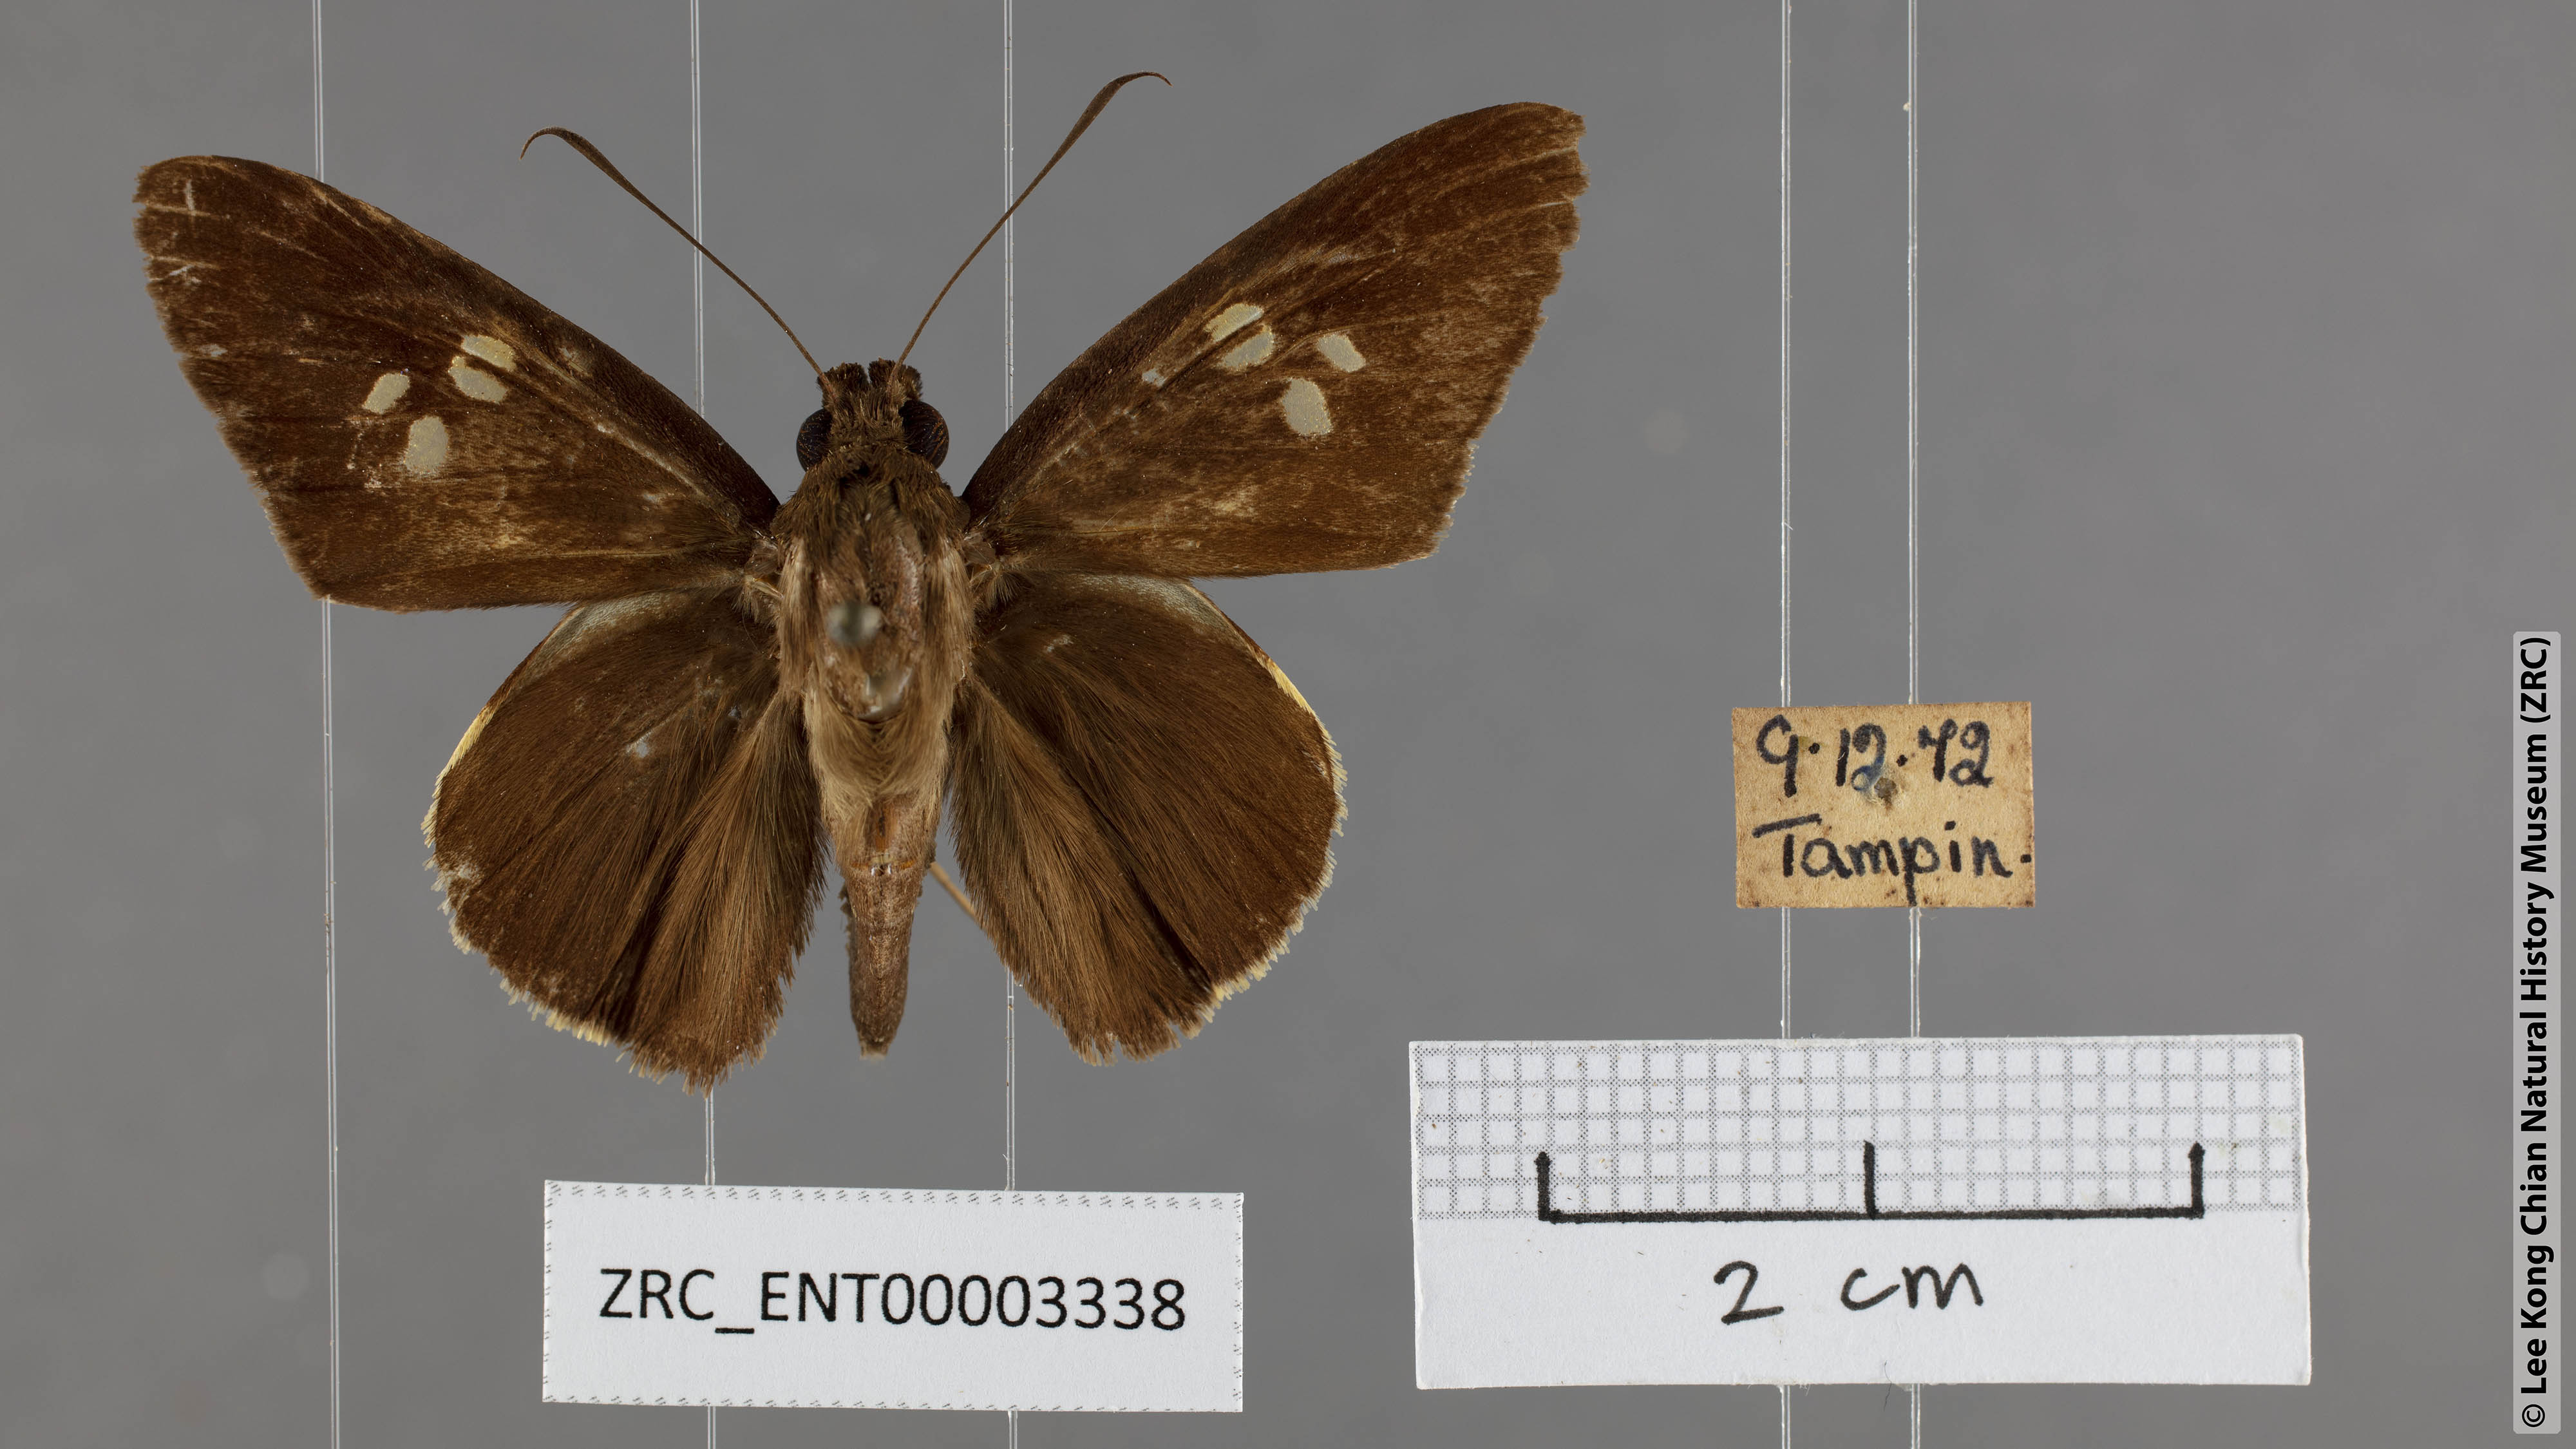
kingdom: Animalia
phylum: Arthropoda
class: Insecta
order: Lepidoptera
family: Hesperiidae
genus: Lotongus
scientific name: Lotongus calathus
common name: White-tipped palmer
